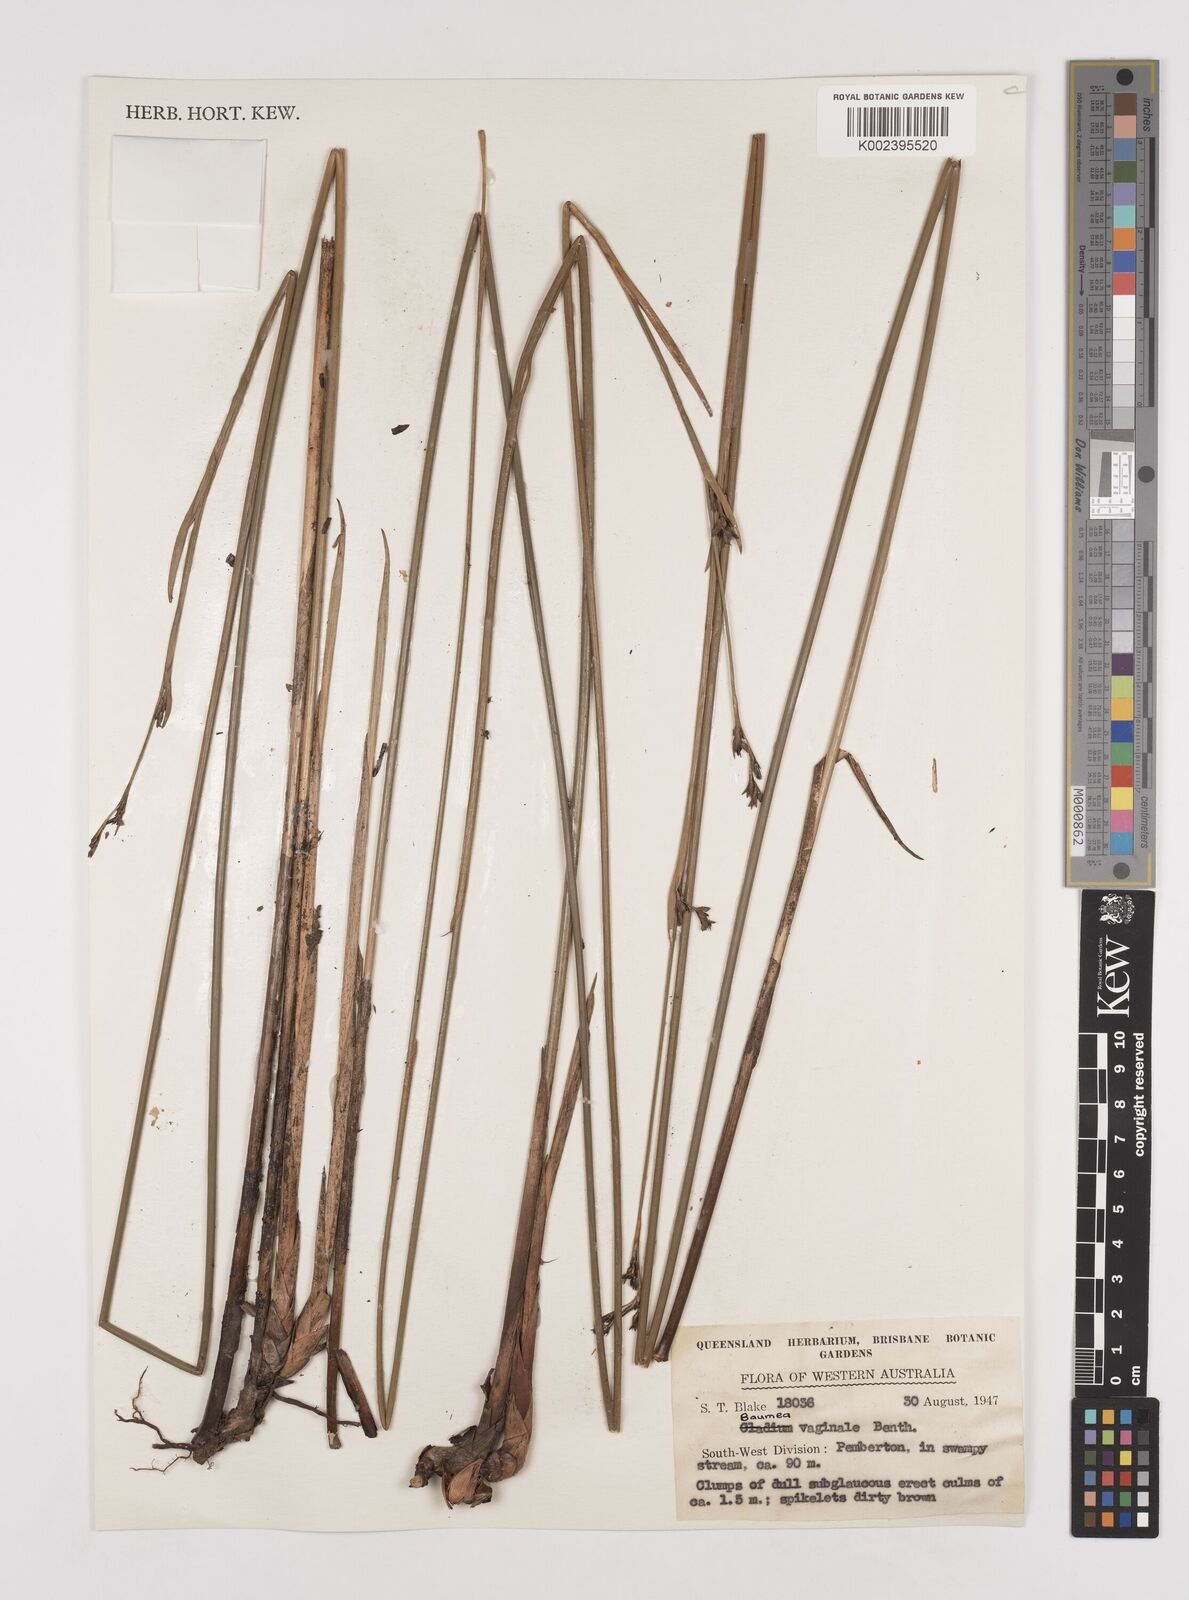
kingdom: Plantae
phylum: Tracheophyta
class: Liliopsida
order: Poales
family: Cyperaceae
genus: Machaerina
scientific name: Machaerina vaginalis
